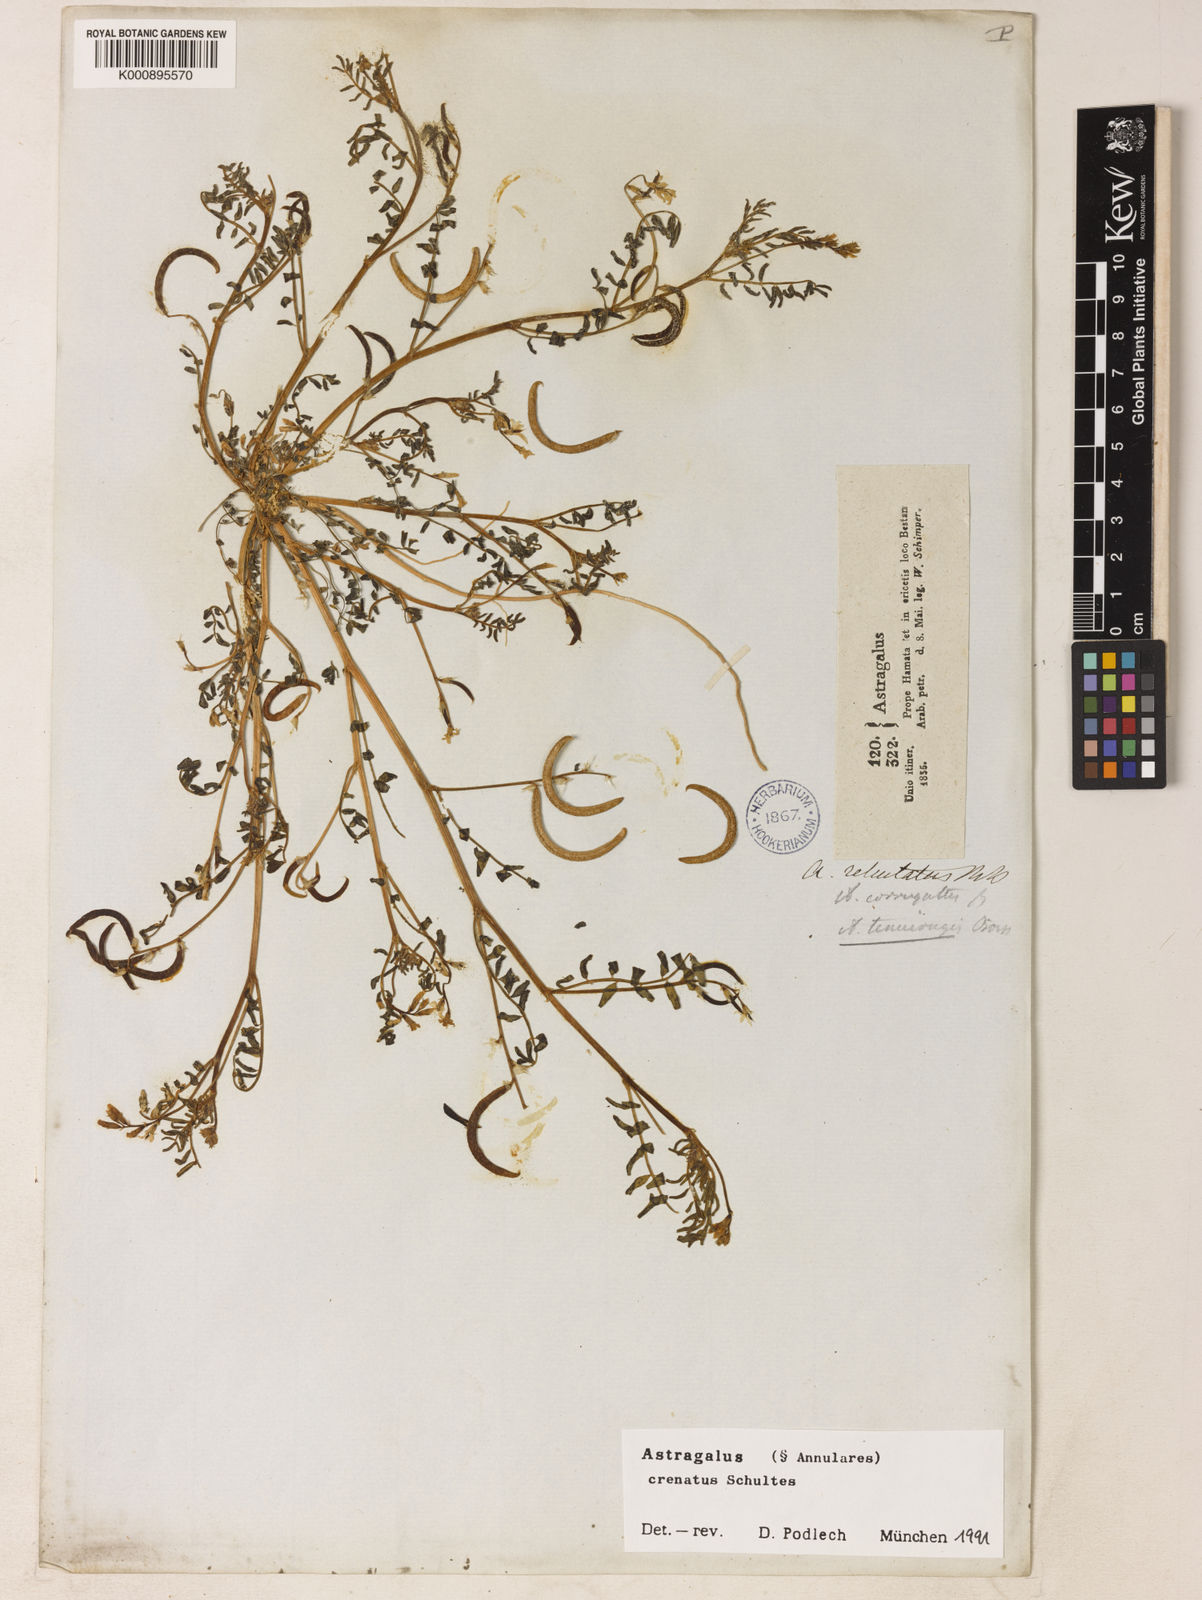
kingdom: Plantae
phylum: Tracheophyta
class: Magnoliopsida
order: Fabales
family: Fabaceae
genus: Astragalus
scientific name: Astragalus crenatus
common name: Milk vetch
